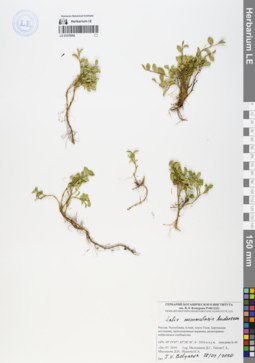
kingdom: Plantae
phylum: Tracheophyta
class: Magnoliopsida
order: Malpighiales
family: Salicaceae
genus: Salix
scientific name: Salix nummularia
